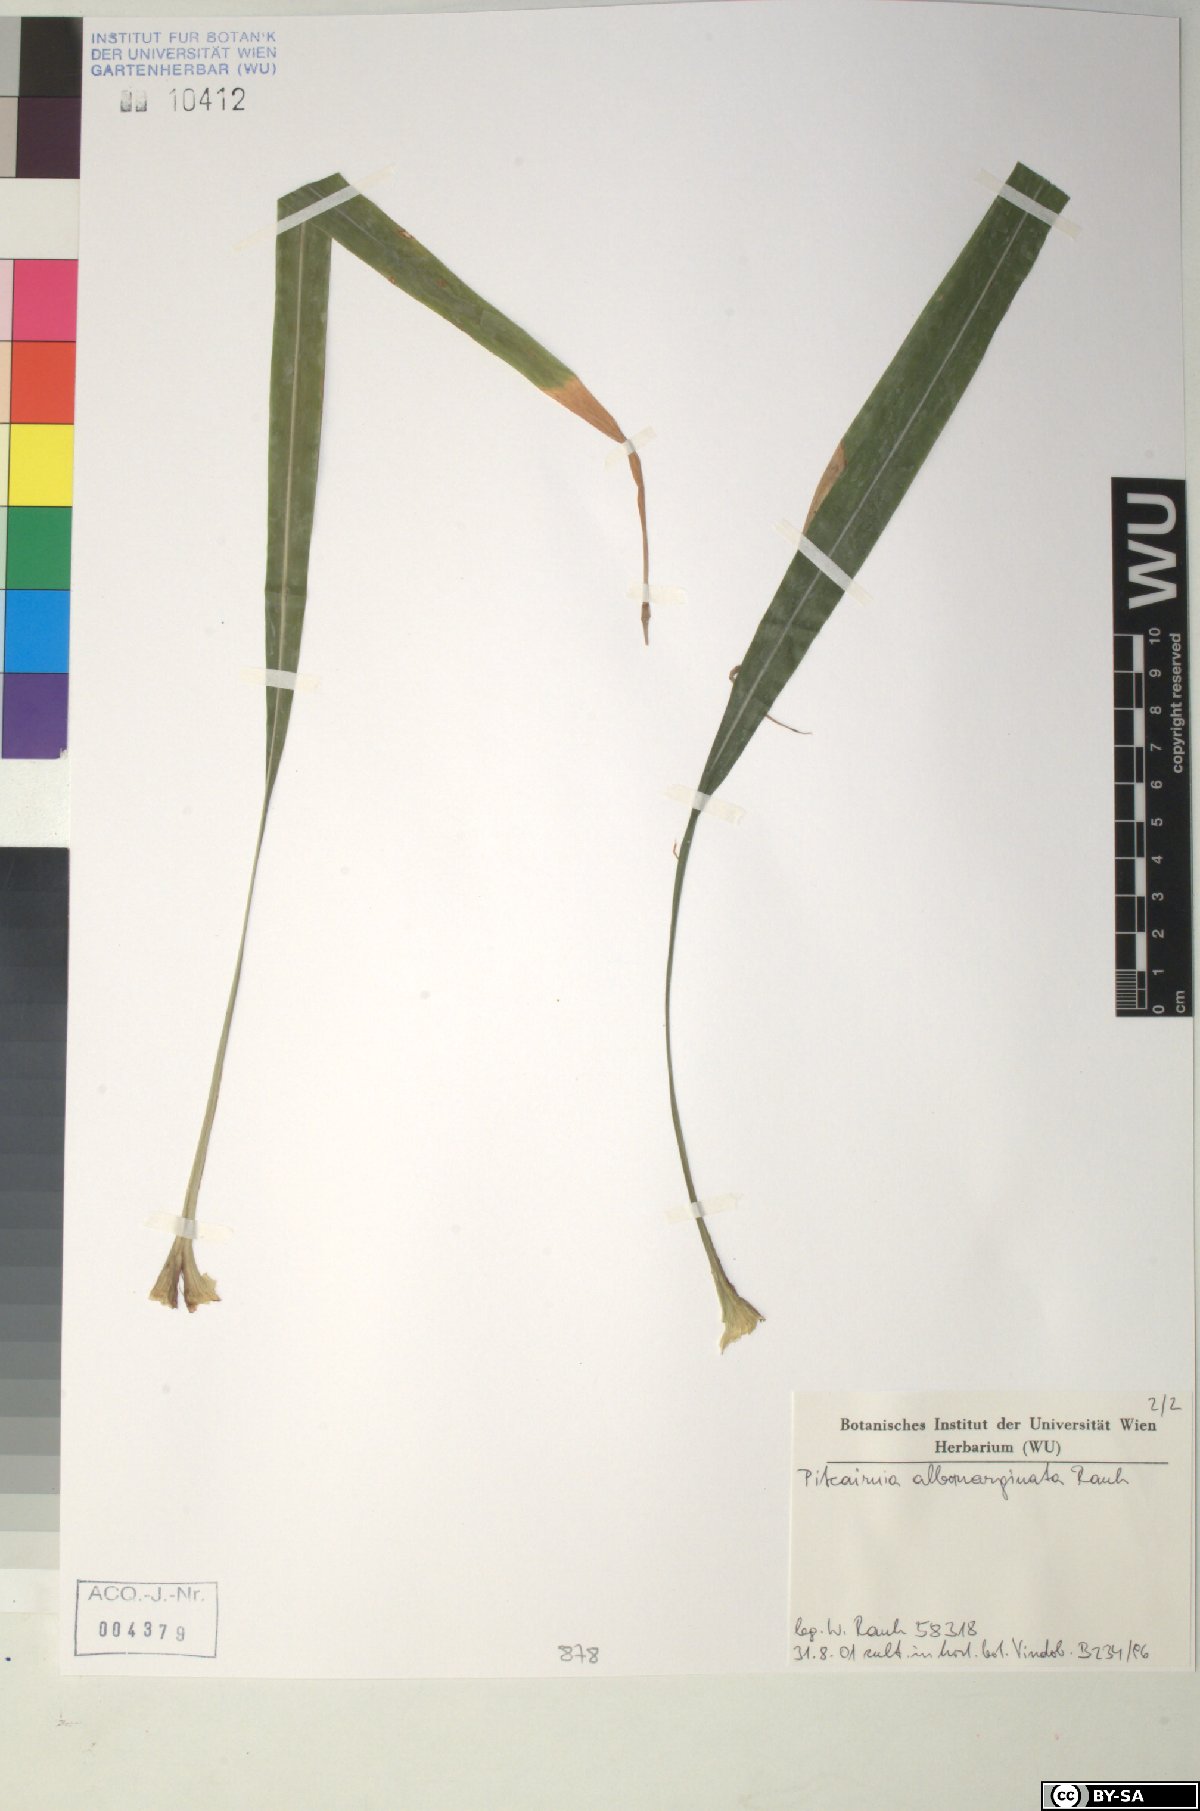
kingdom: Plantae
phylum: Tracheophyta
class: Liliopsida
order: Poales
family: Bromeliaceae
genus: Pitcairnia
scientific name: Pitcairnia hitchcockiana
